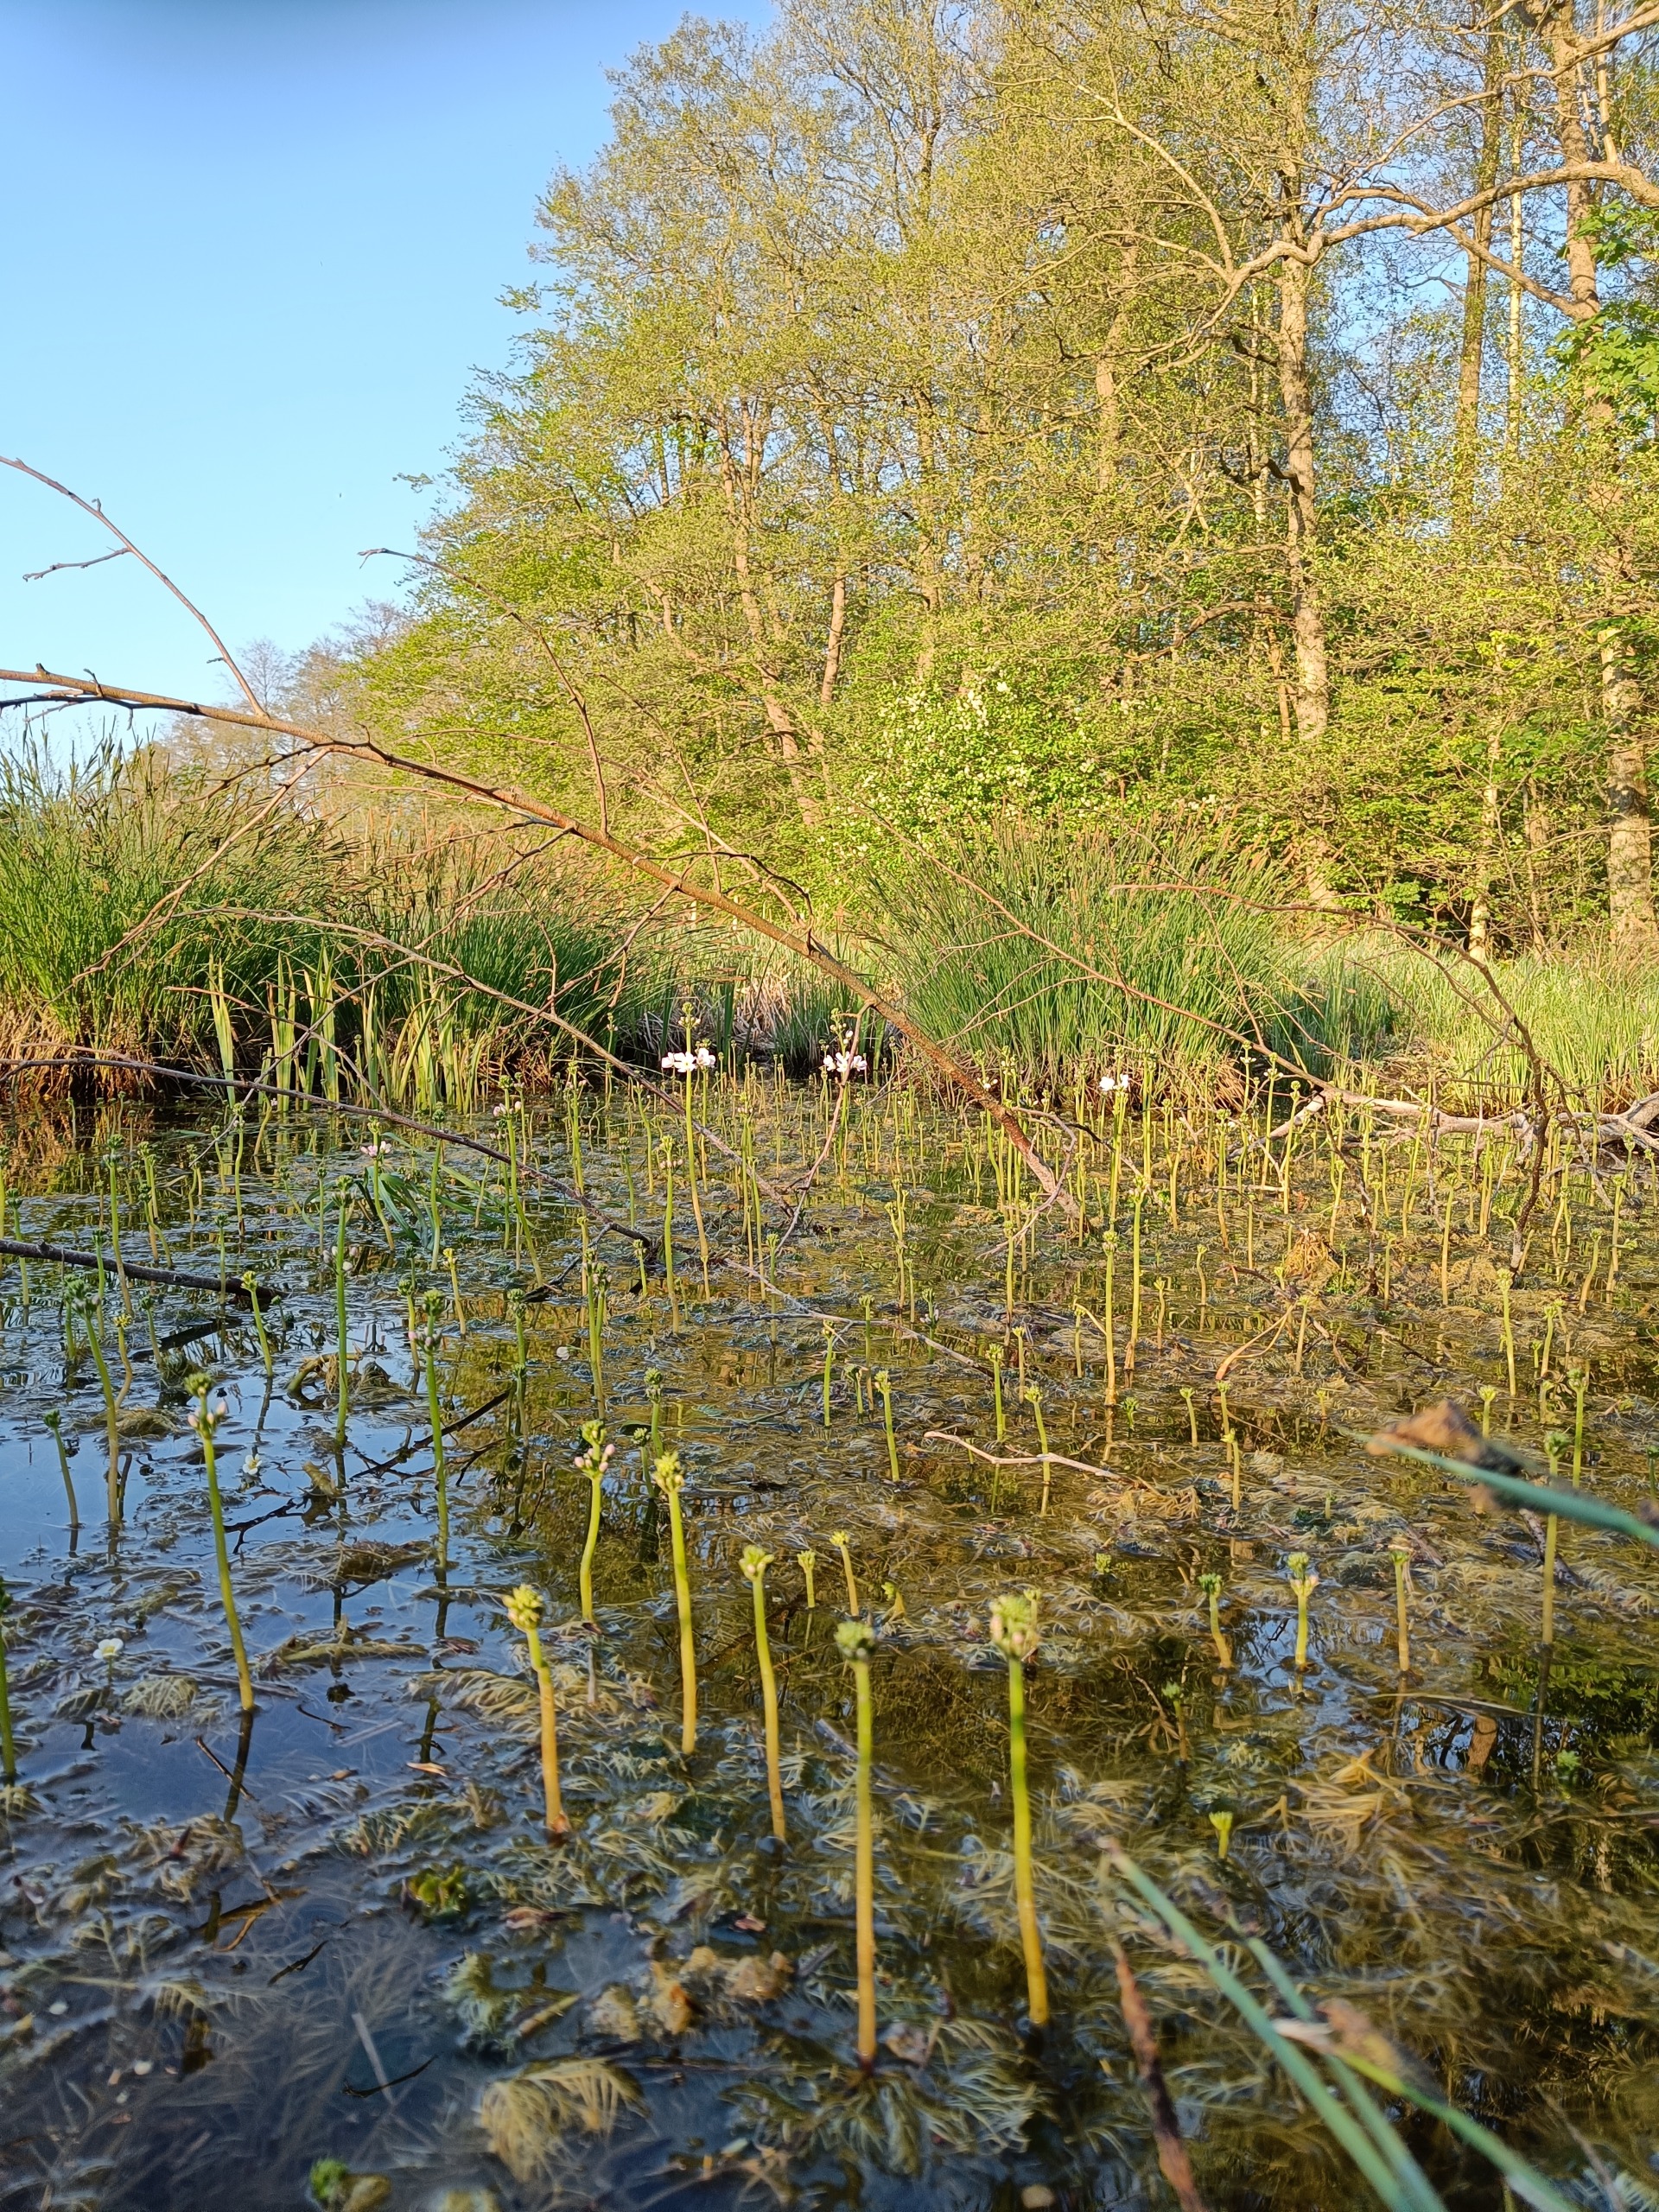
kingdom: Plantae
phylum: Tracheophyta
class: Magnoliopsida
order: Ericales
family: Primulaceae
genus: Hottonia
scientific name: Hottonia palustris
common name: Vandrøllike
